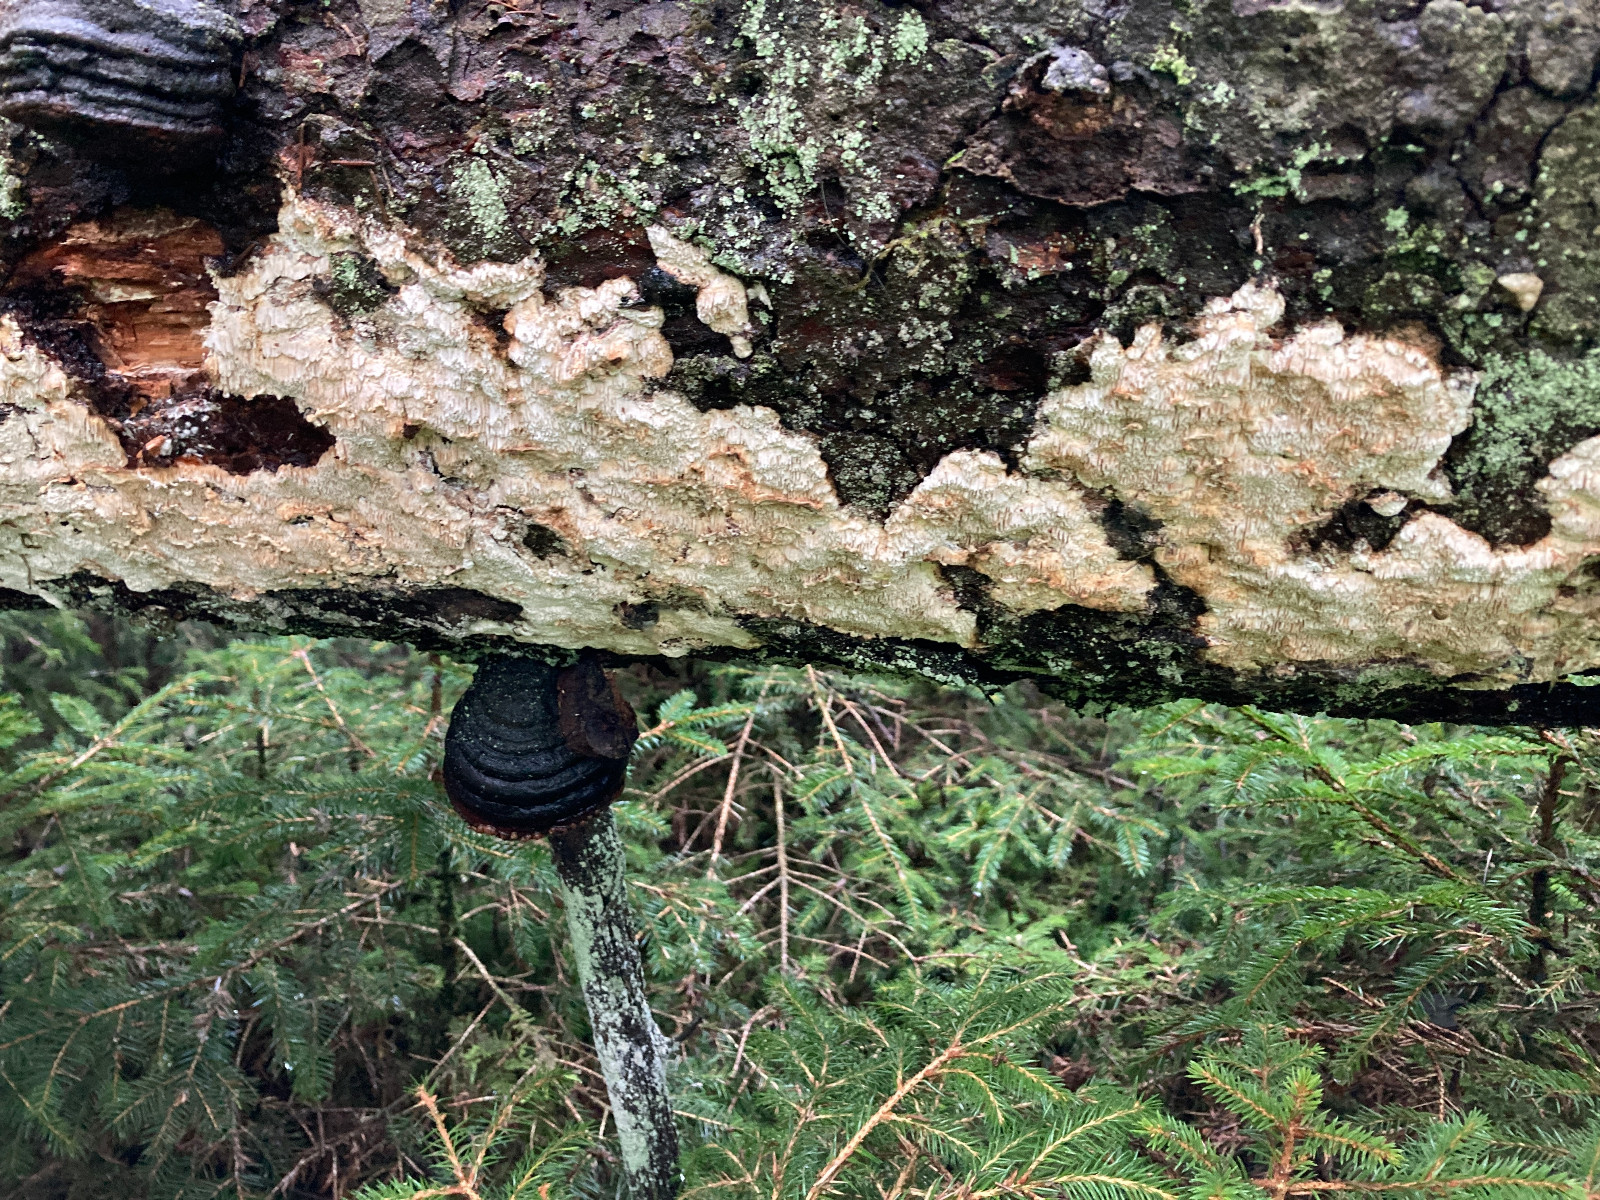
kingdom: Fungi
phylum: Basidiomycota
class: Agaricomycetes
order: Polyporales
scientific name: Polyporales
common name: poresvampordenen
